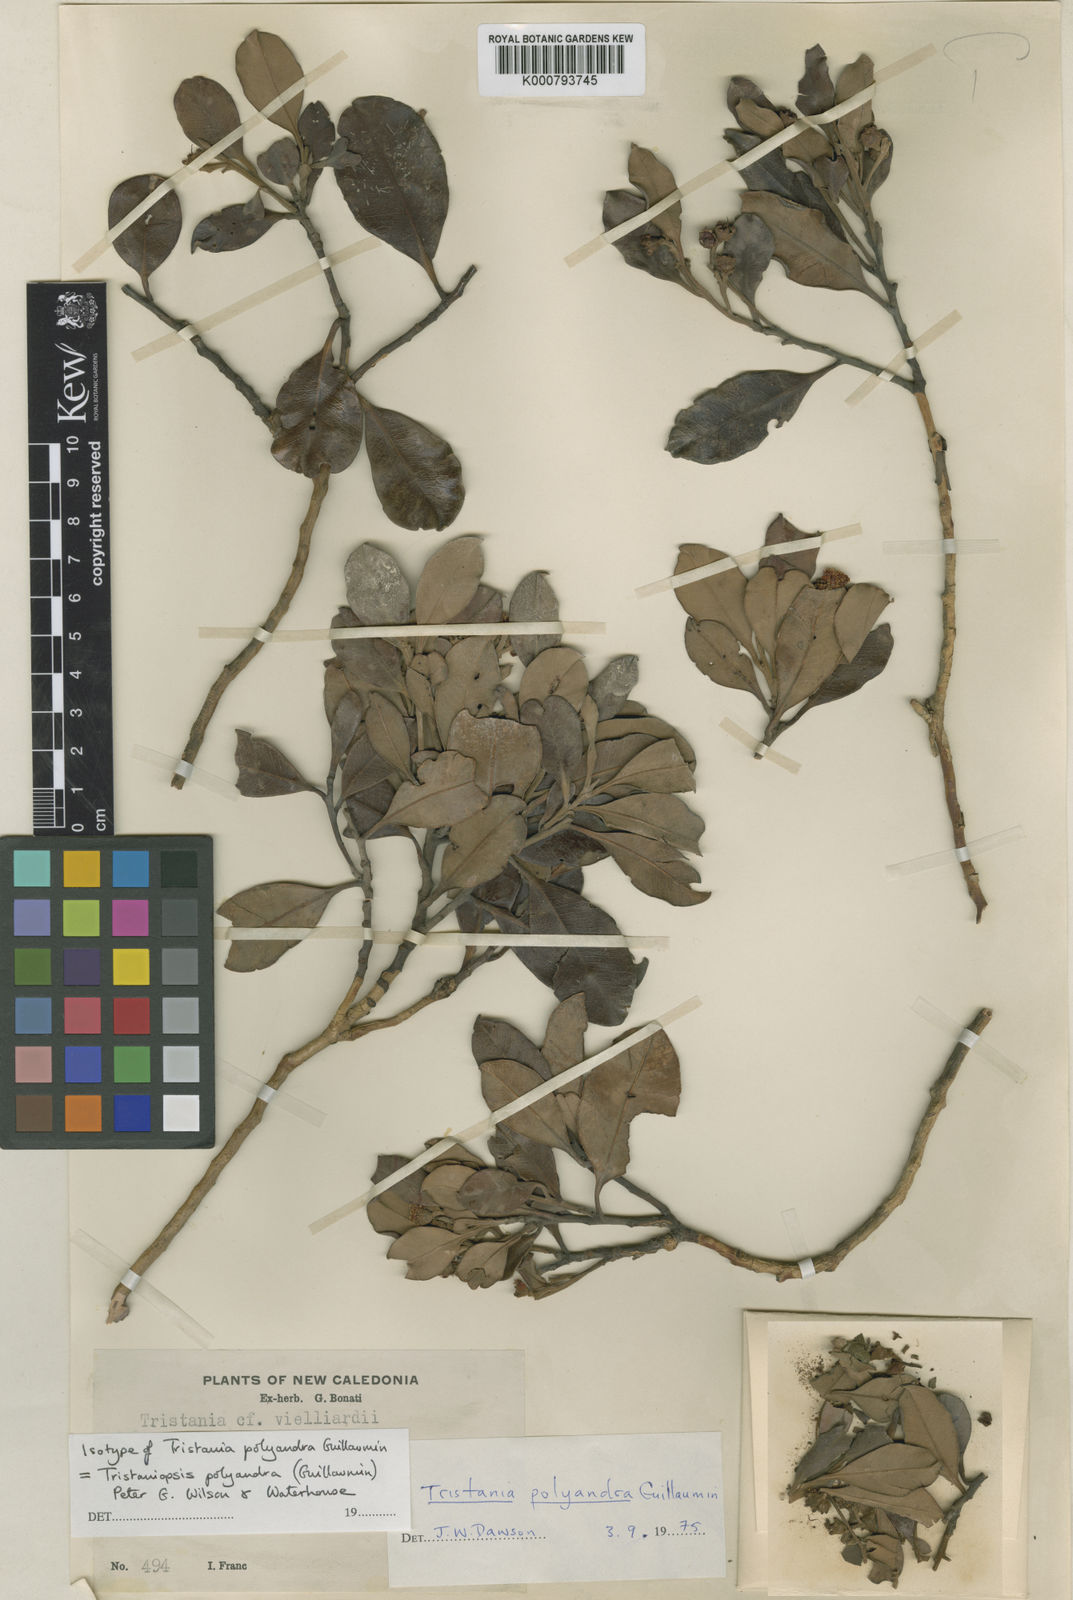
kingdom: Plantae
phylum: Tracheophyta
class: Magnoliopsida
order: Myrtales
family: Myrtaceae
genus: Tristaniopsis
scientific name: Tristaniopsis polyandra
